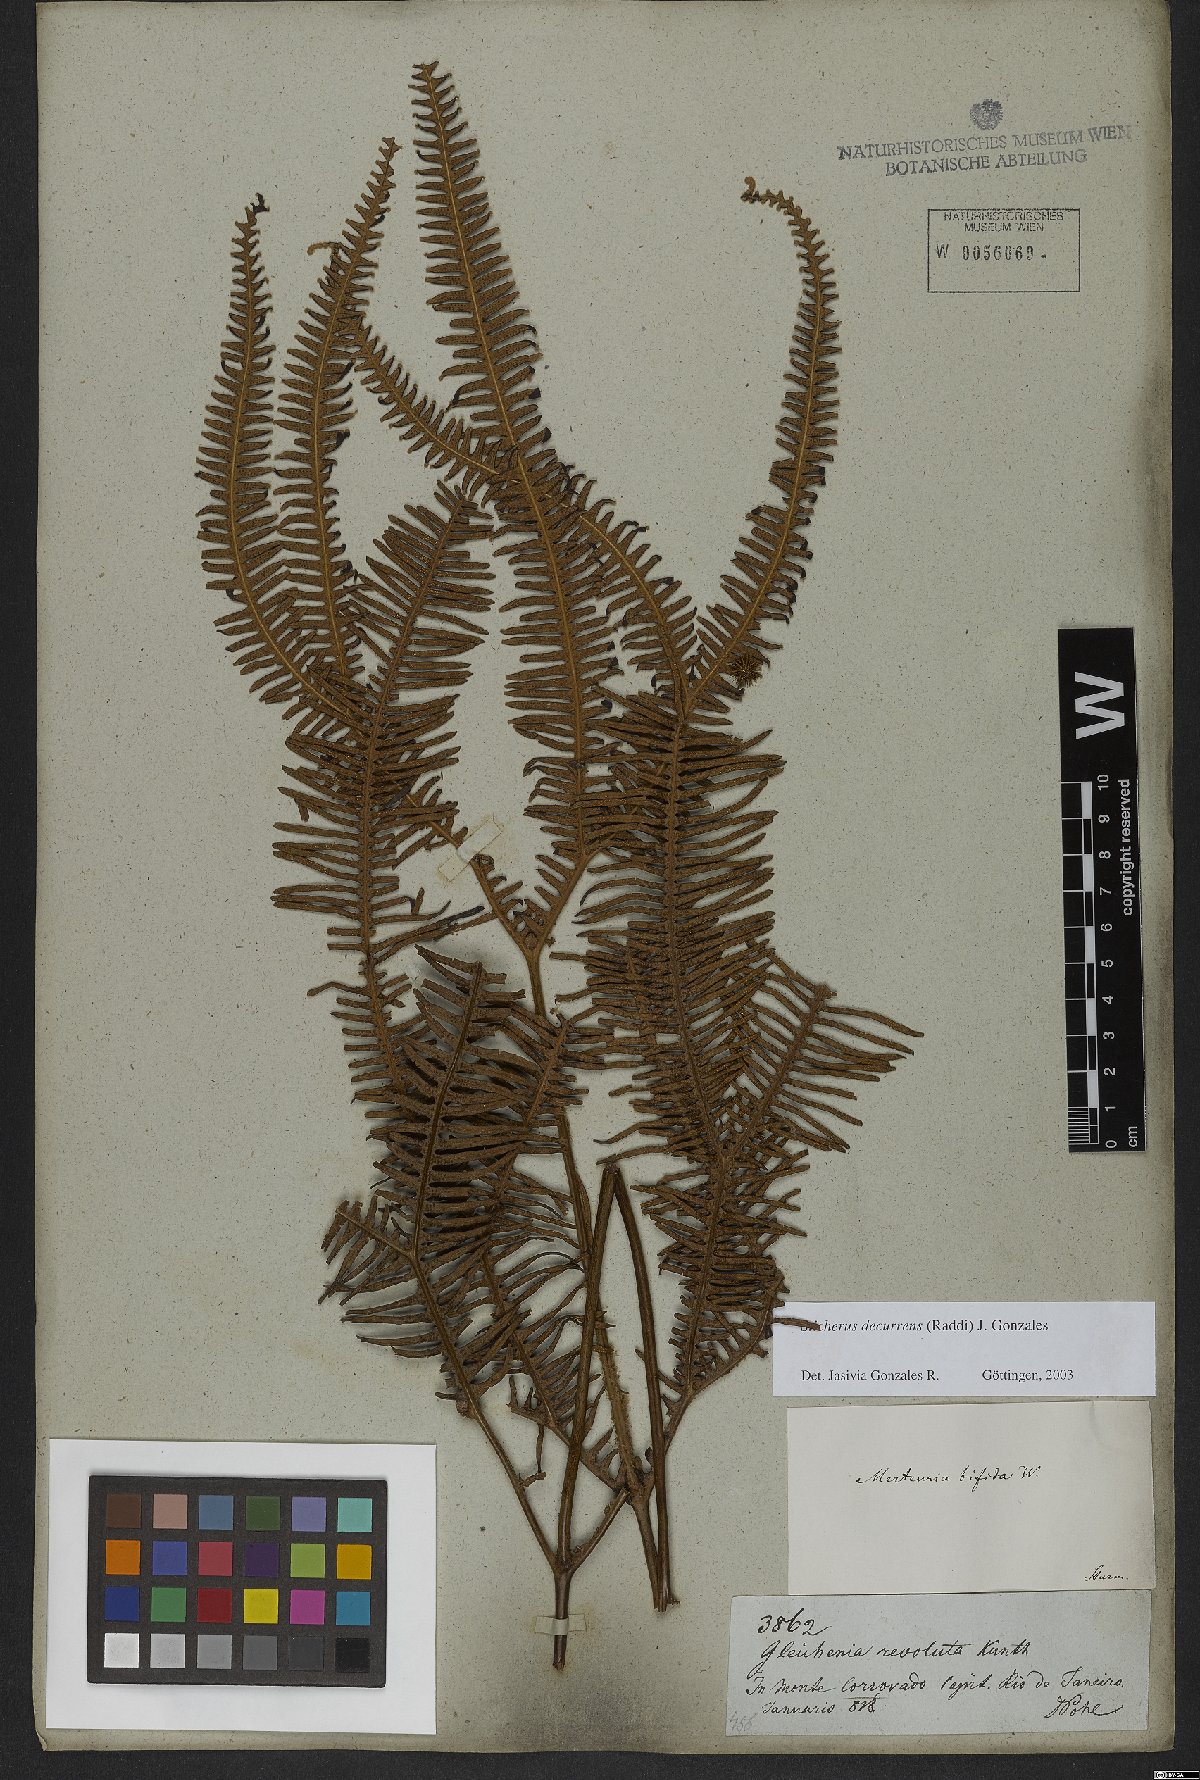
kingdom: Plantae
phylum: Tracheophyta
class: Polypodiopsida
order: Gleicheniales
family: Gleicheniaceae
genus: Sticherus
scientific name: Sticherus decurrens
